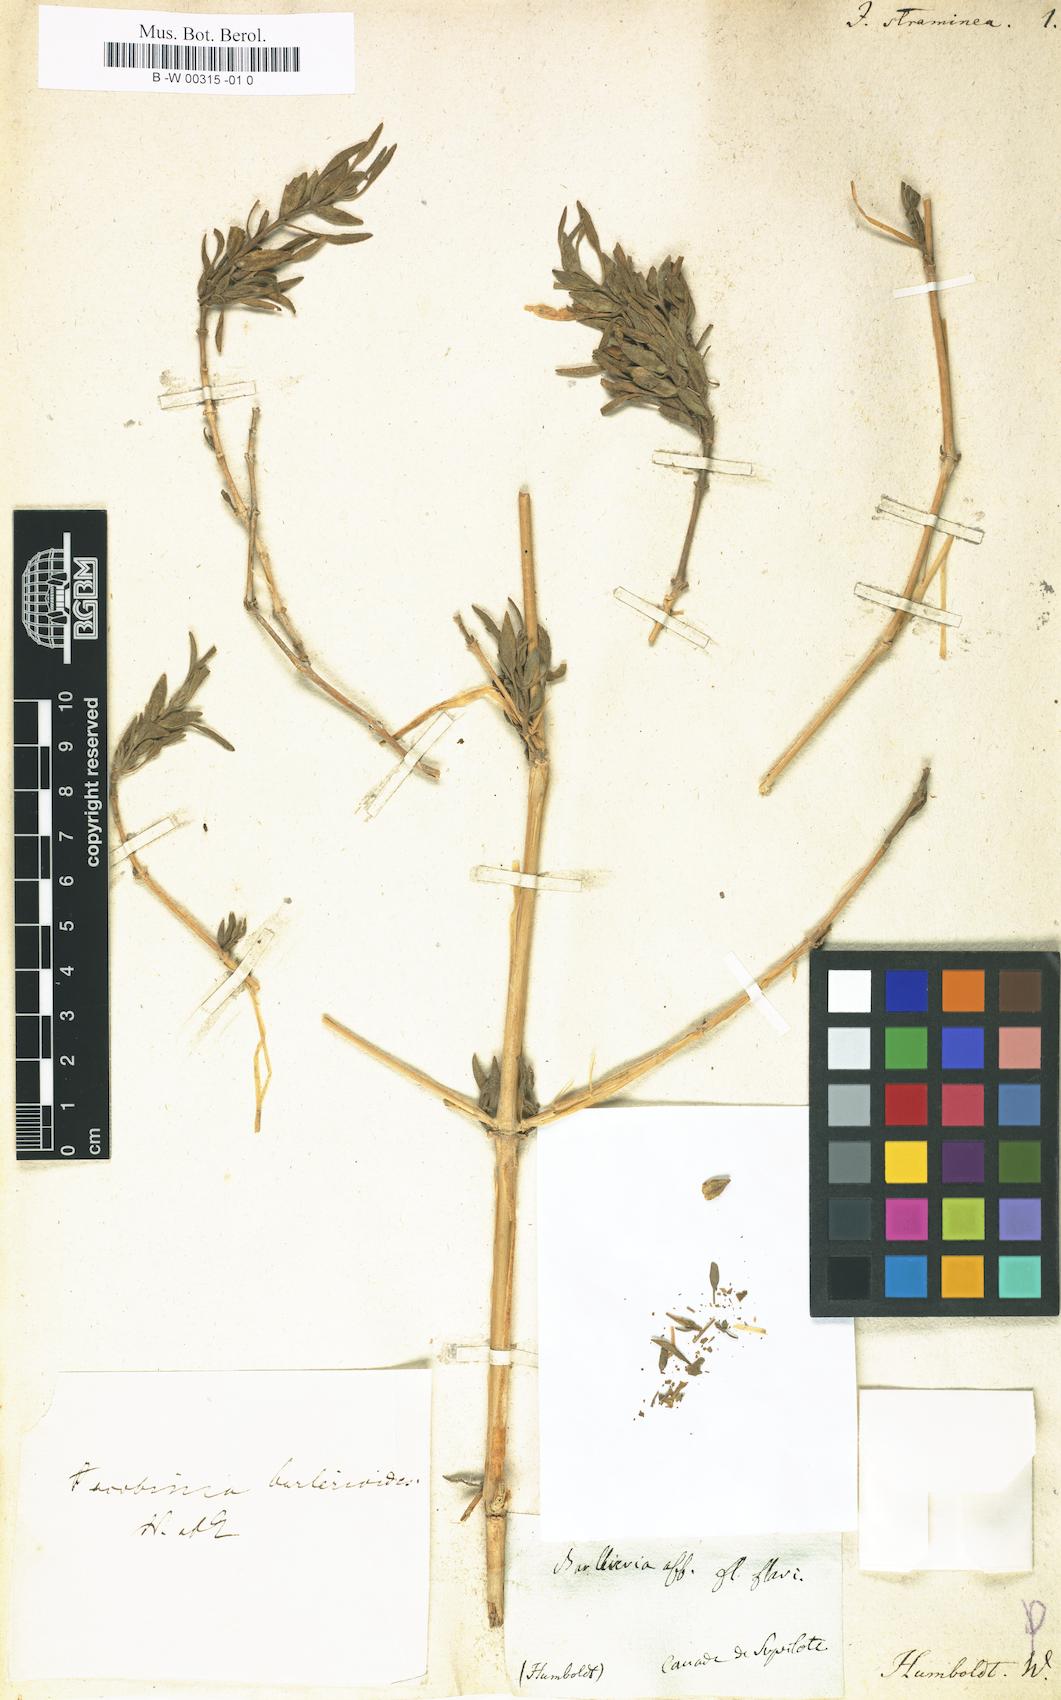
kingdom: Plantae
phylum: Tracheophyta
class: Magnoliopsida
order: Lamiales
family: Acanthaceae
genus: Justicia
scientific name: Justicia straminea
